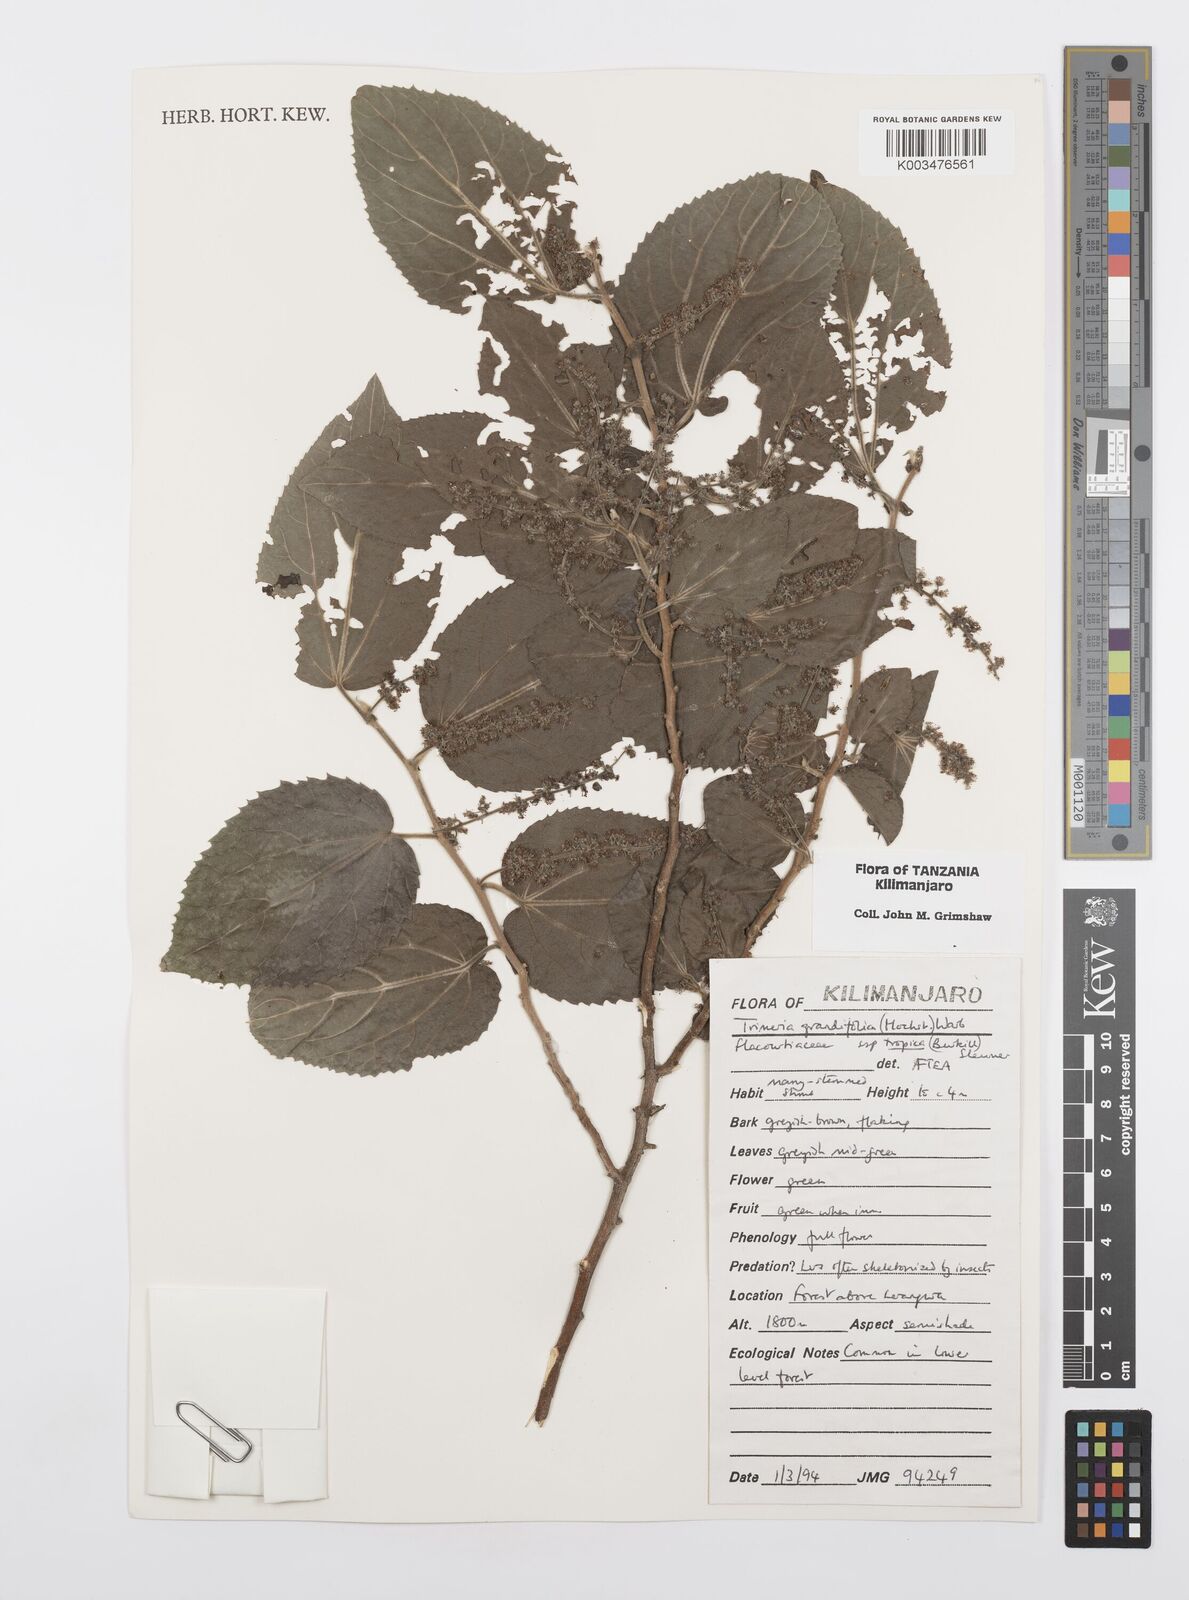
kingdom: Plantae
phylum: Tracheophyta
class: Magnoliopsida
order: Malpighiales
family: Salicaceae
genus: Trimeria
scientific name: Trimeria grandifolia
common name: Wild mulberry
